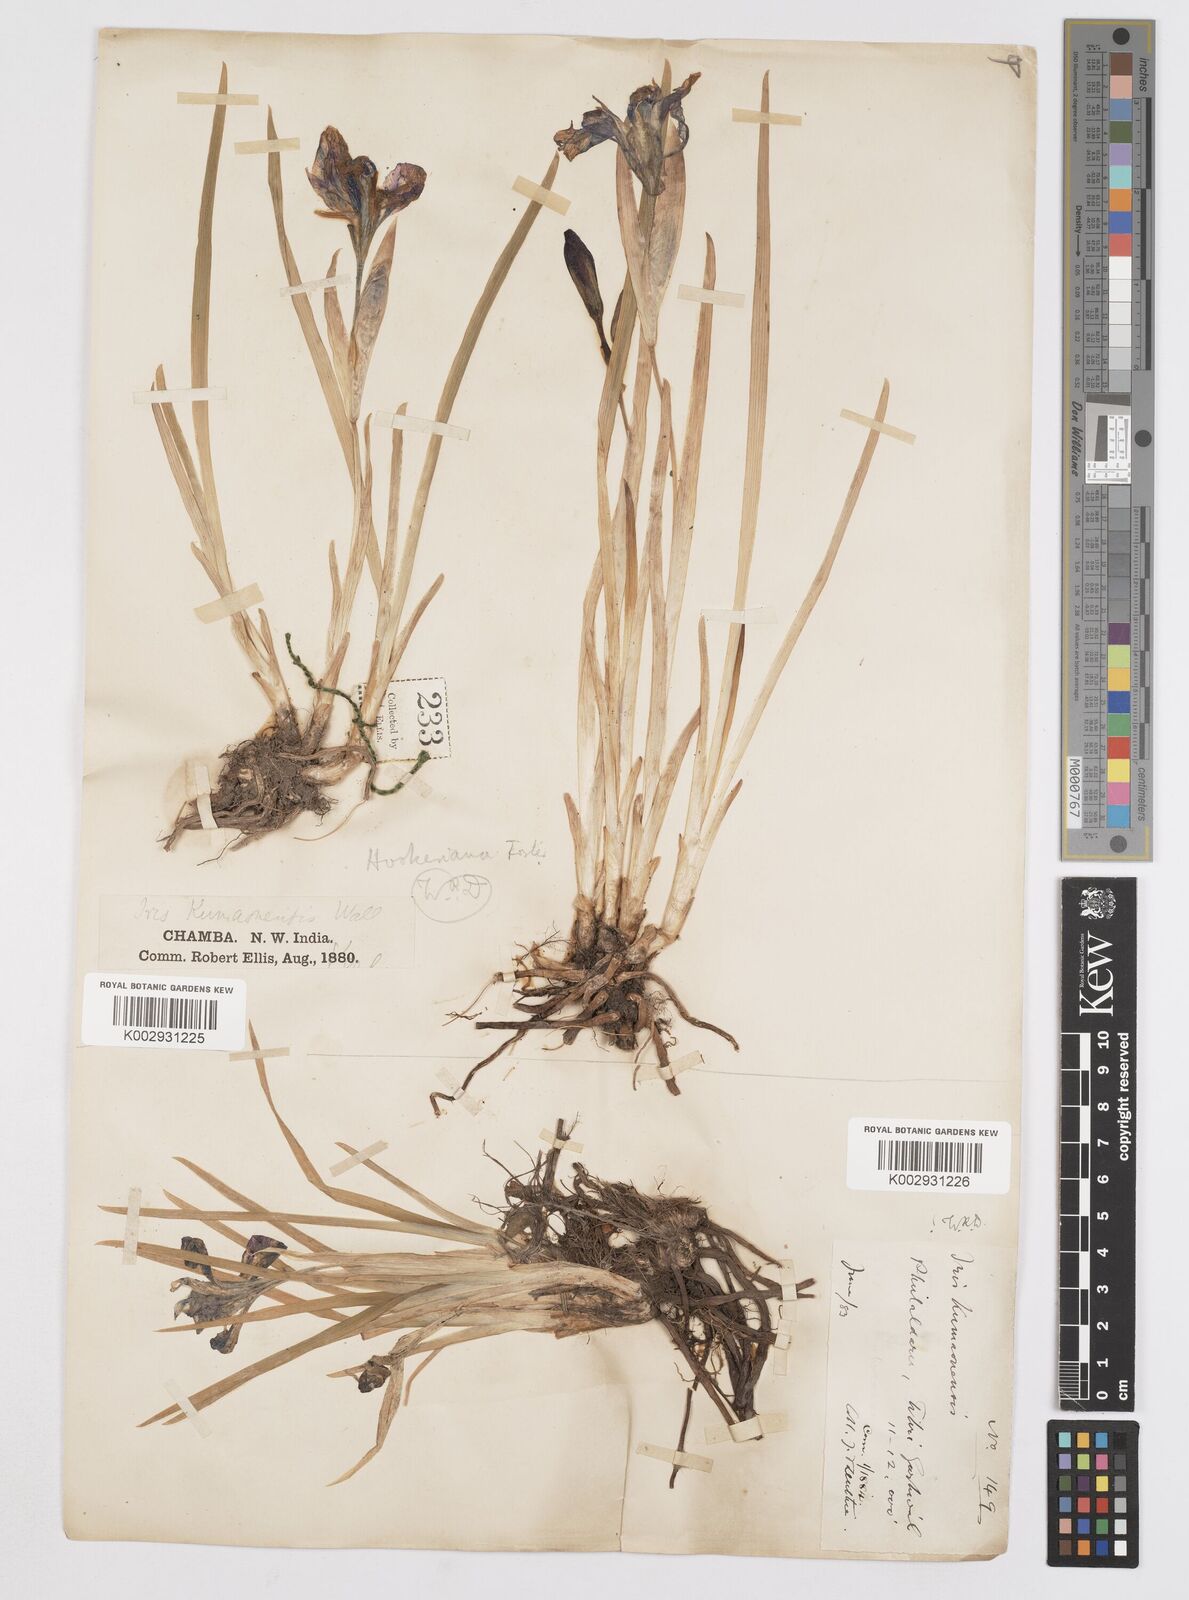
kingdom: Plantae
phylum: Tracheophyta
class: Liliopsida
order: Asparagales
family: Iridaceae
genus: Iris
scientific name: Iris hookeriana
